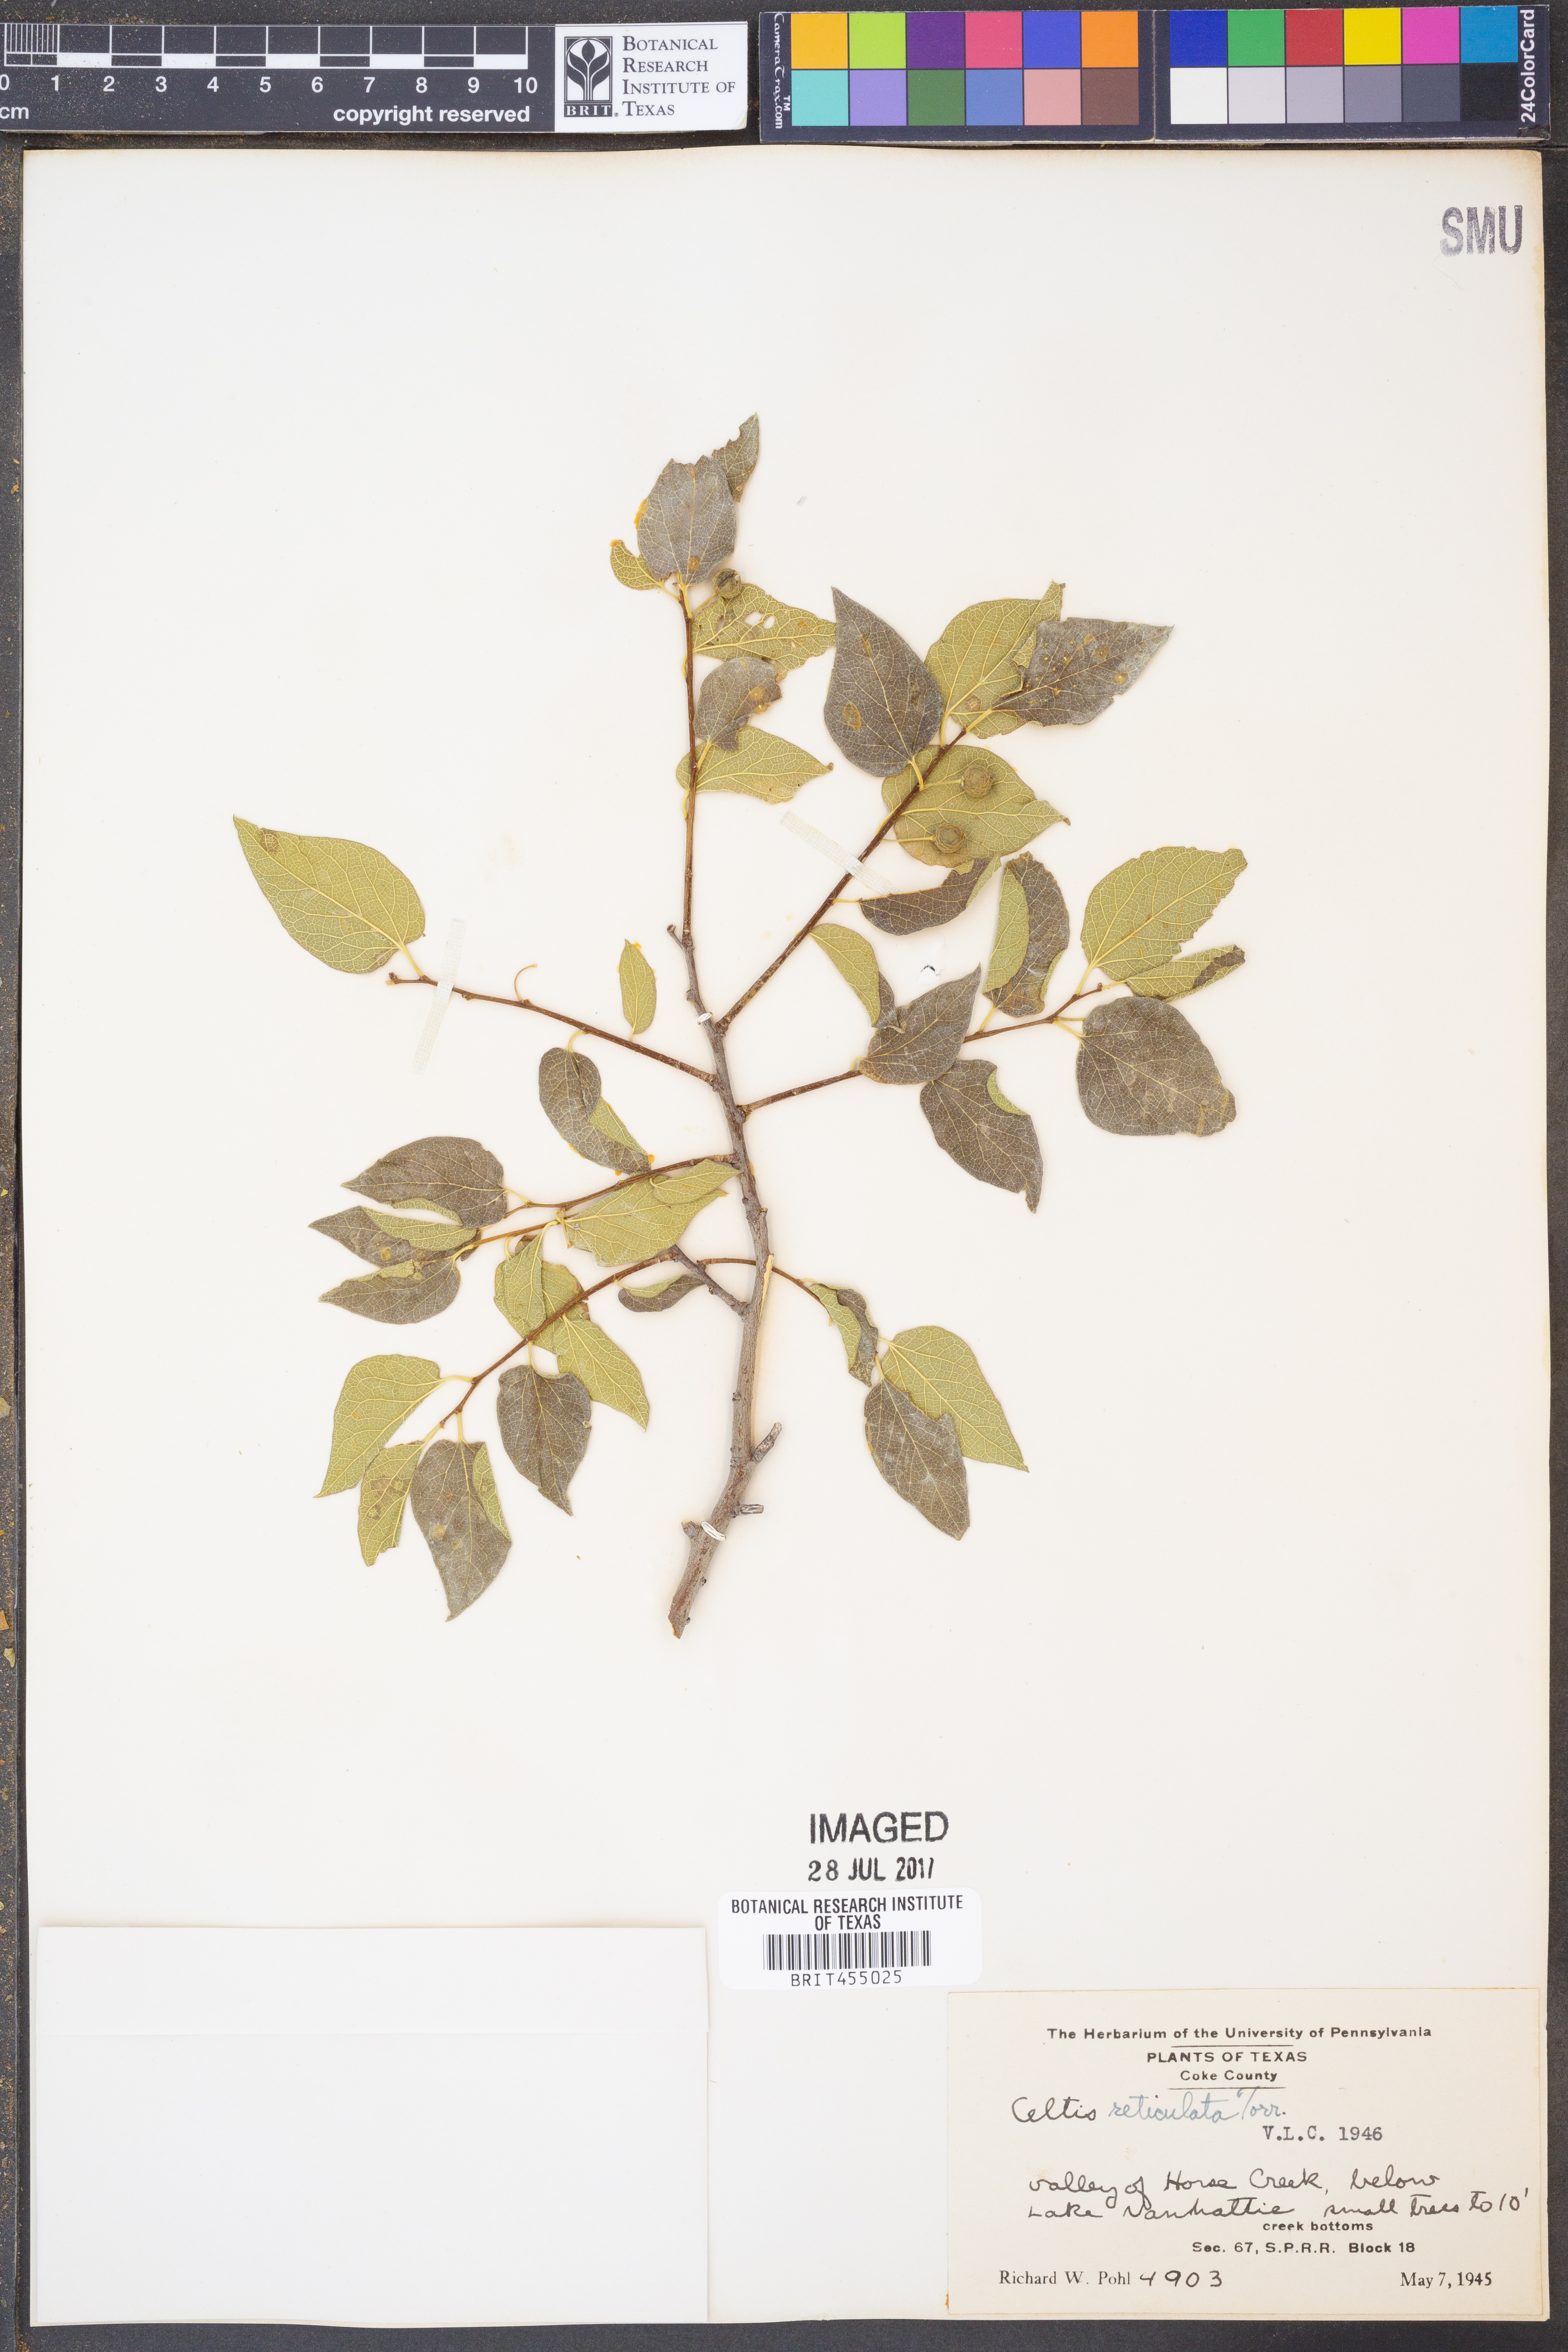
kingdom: Plantae
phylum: Tracheophyta
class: Magnoliopsida
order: Rosales
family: Cannabaceae
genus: Celtis
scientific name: Celtis reticulata
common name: Netleaf hackberry
